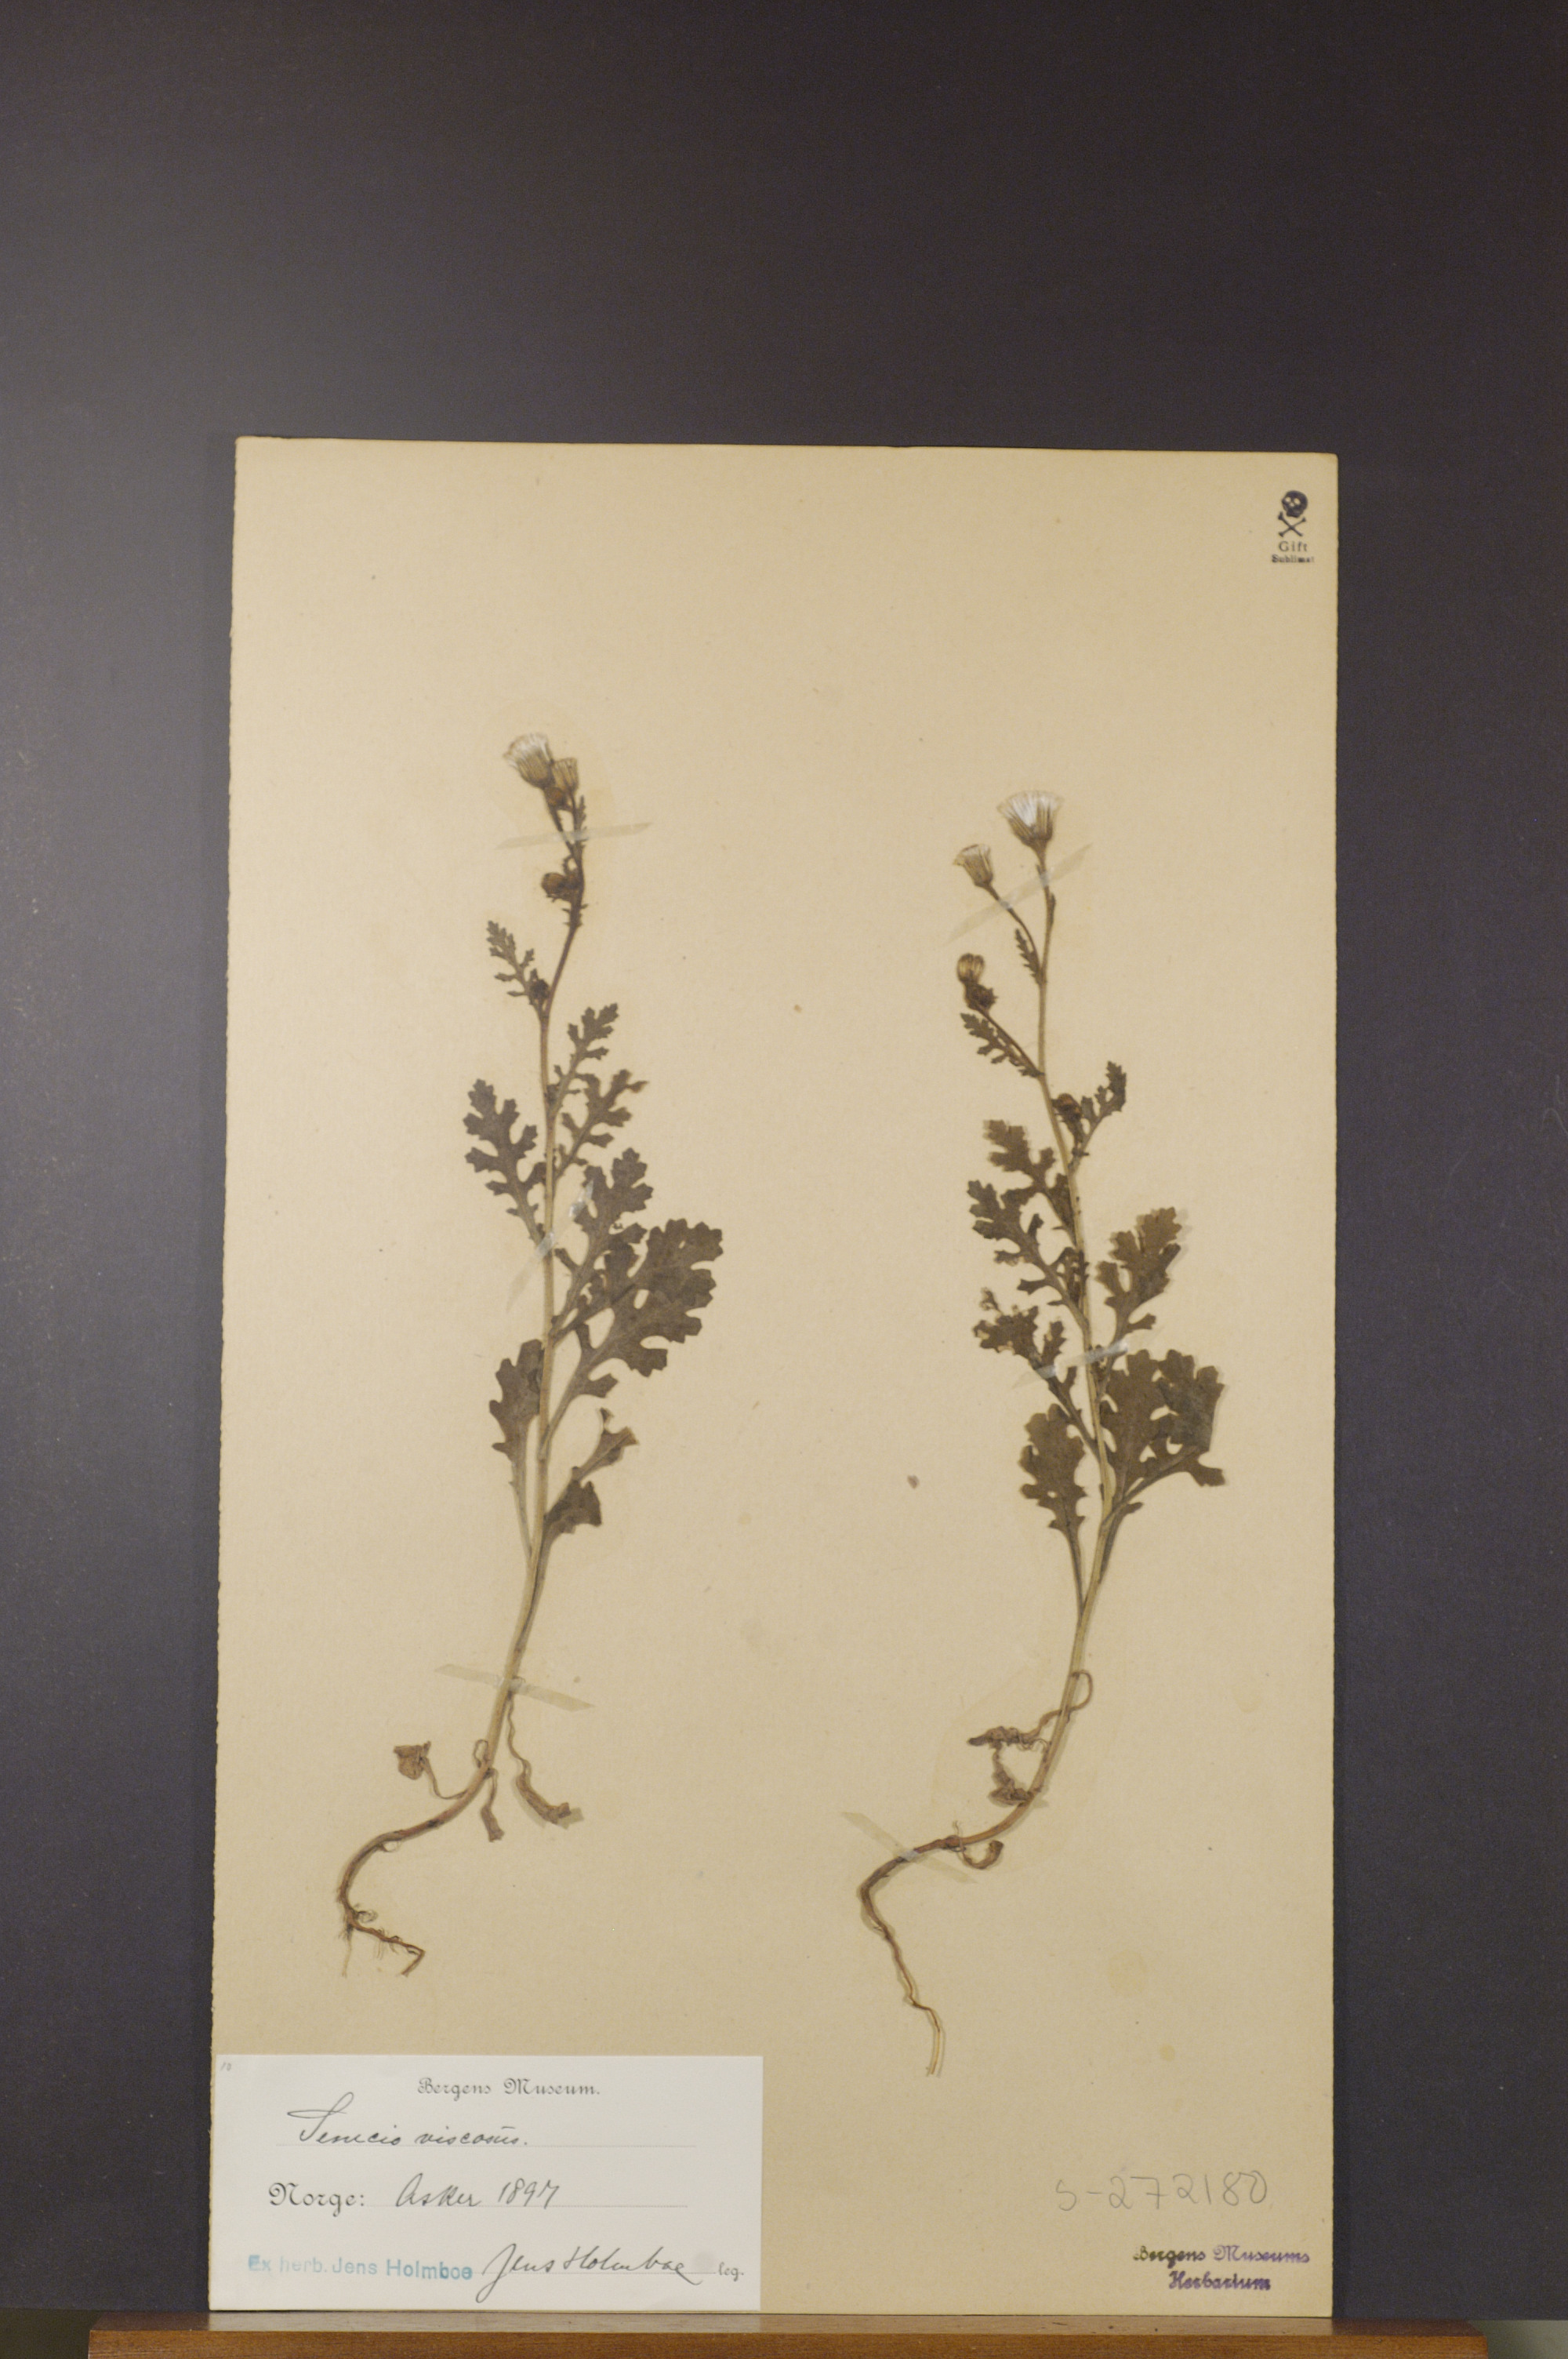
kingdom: Plantae
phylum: Tracheophyta
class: Magnoliopsida
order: Asterales
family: Asteraceae
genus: Senecio
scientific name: Senecio viscosus
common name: Sticky groundsel
